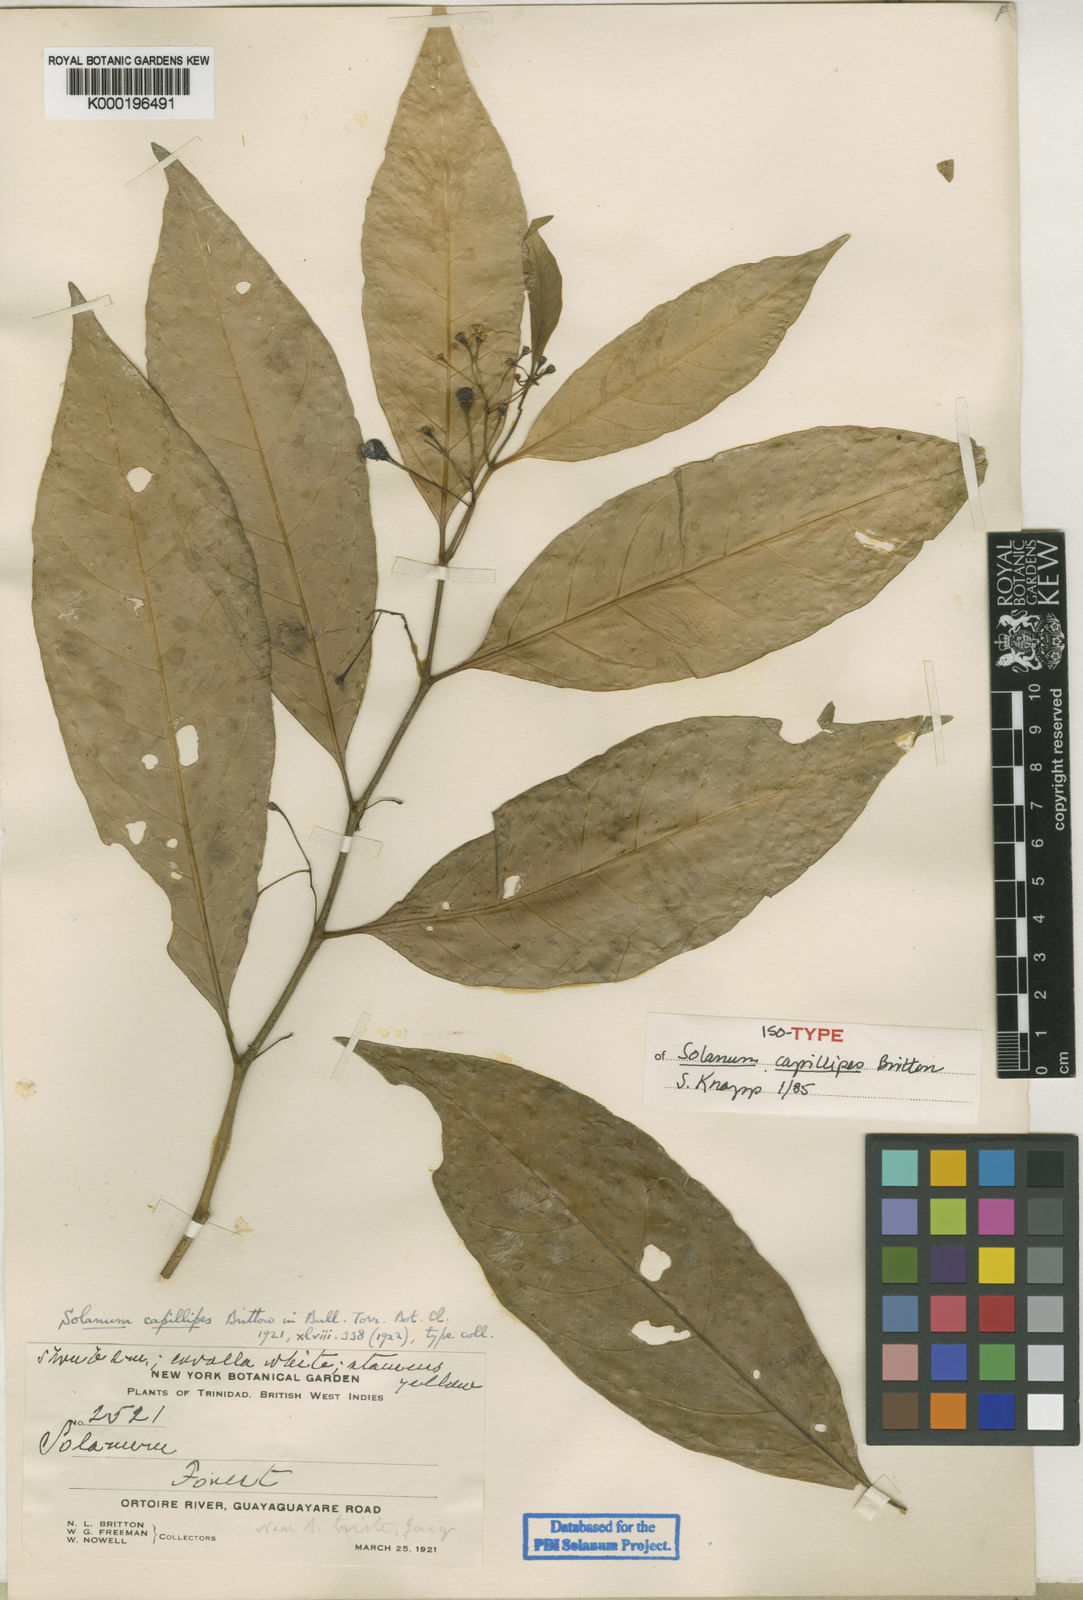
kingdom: Plantae
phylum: Tracheophyta
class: Magnoliopsida
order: Solanales
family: Solanaceae
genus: Solanum
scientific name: Solanum capillipes
